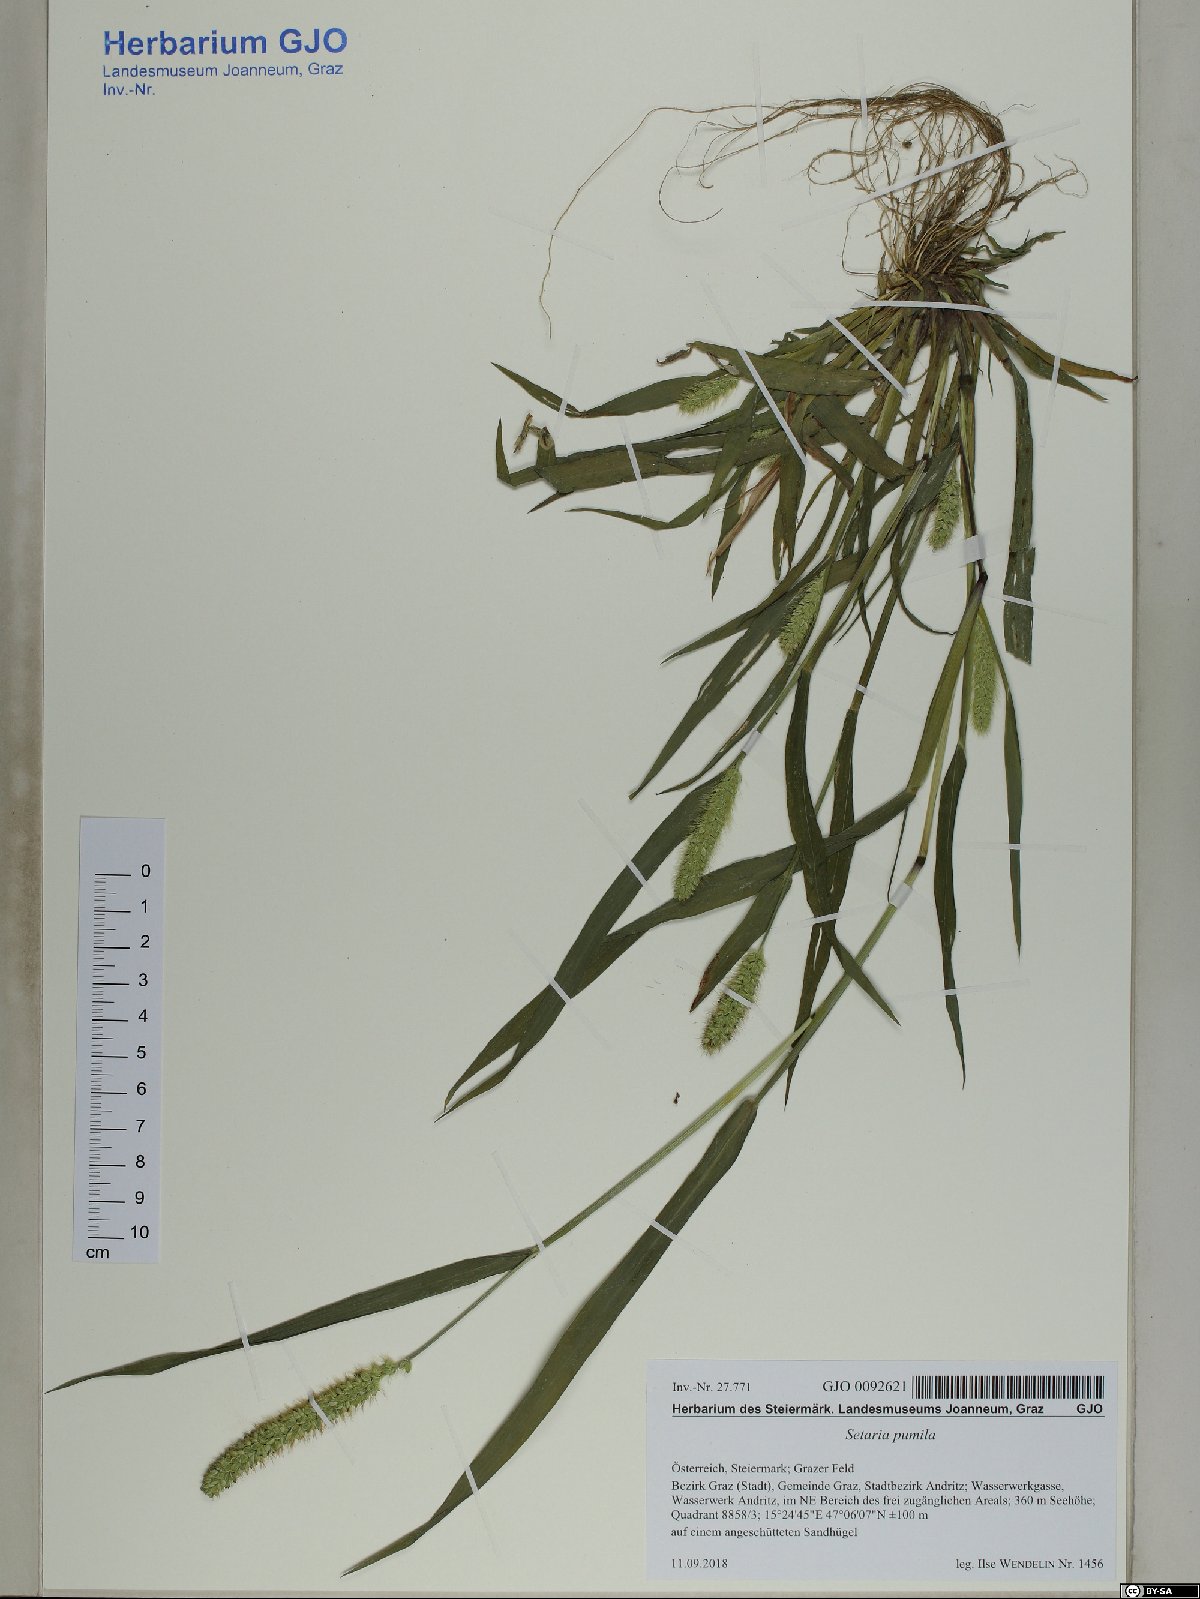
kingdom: Plantae
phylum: Tracheophyta
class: Liliopsida
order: Poales
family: Poaceae
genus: Setaria
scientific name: Setaria pumila
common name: Yellow bristle-grass
